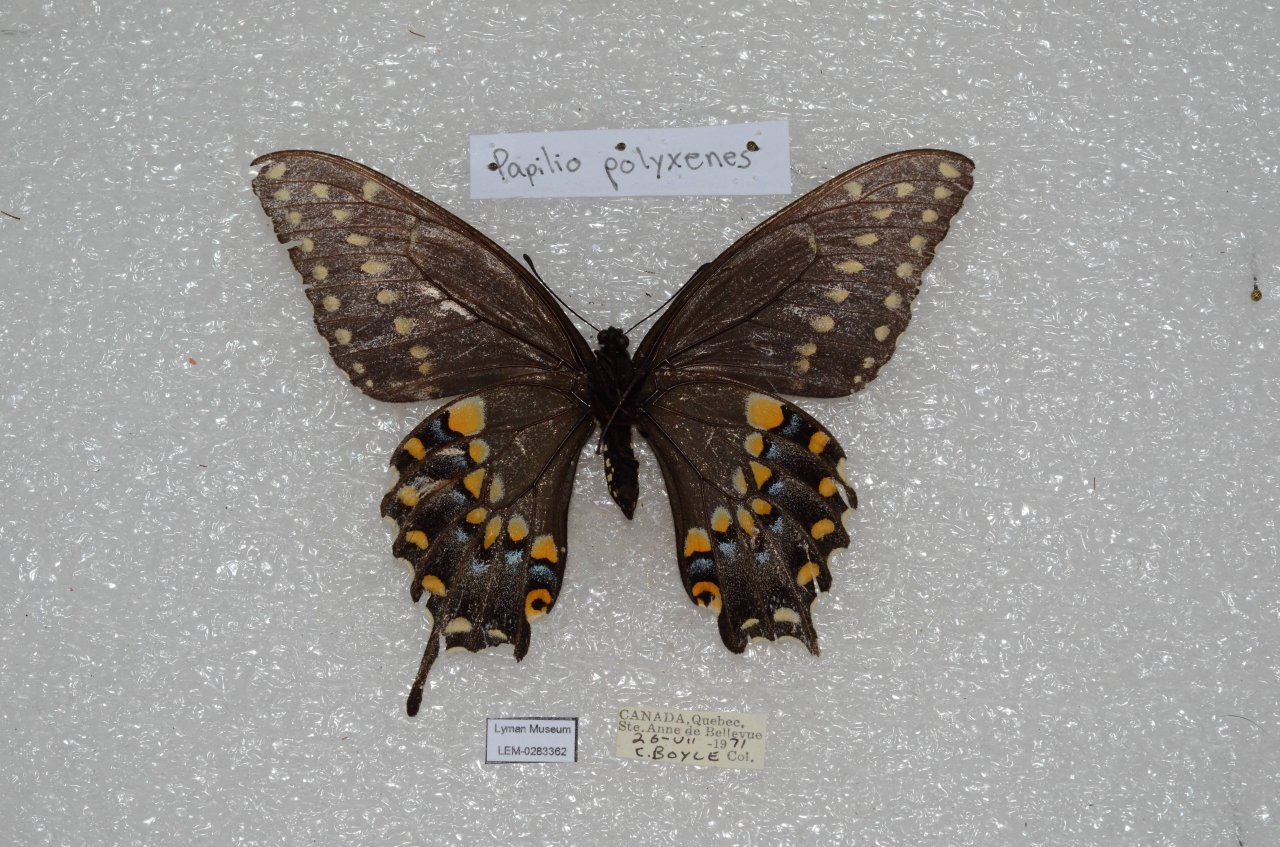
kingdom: Animalia
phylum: Arthropoda
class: Insecta
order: Lepidoptera
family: Papilionidae
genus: Papilio
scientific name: Papilio polyxenes
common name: Black Swallowtail
